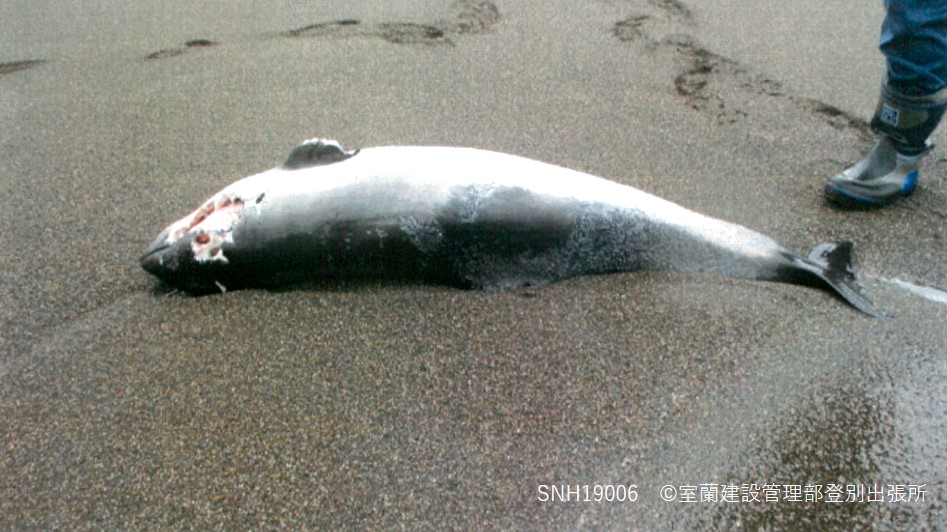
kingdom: Animalia
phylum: Chordata
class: Mammalia
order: Cetacea
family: Phocoenidae
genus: Phocoena
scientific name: Phocoena phocoena
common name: Harbour porpoise
